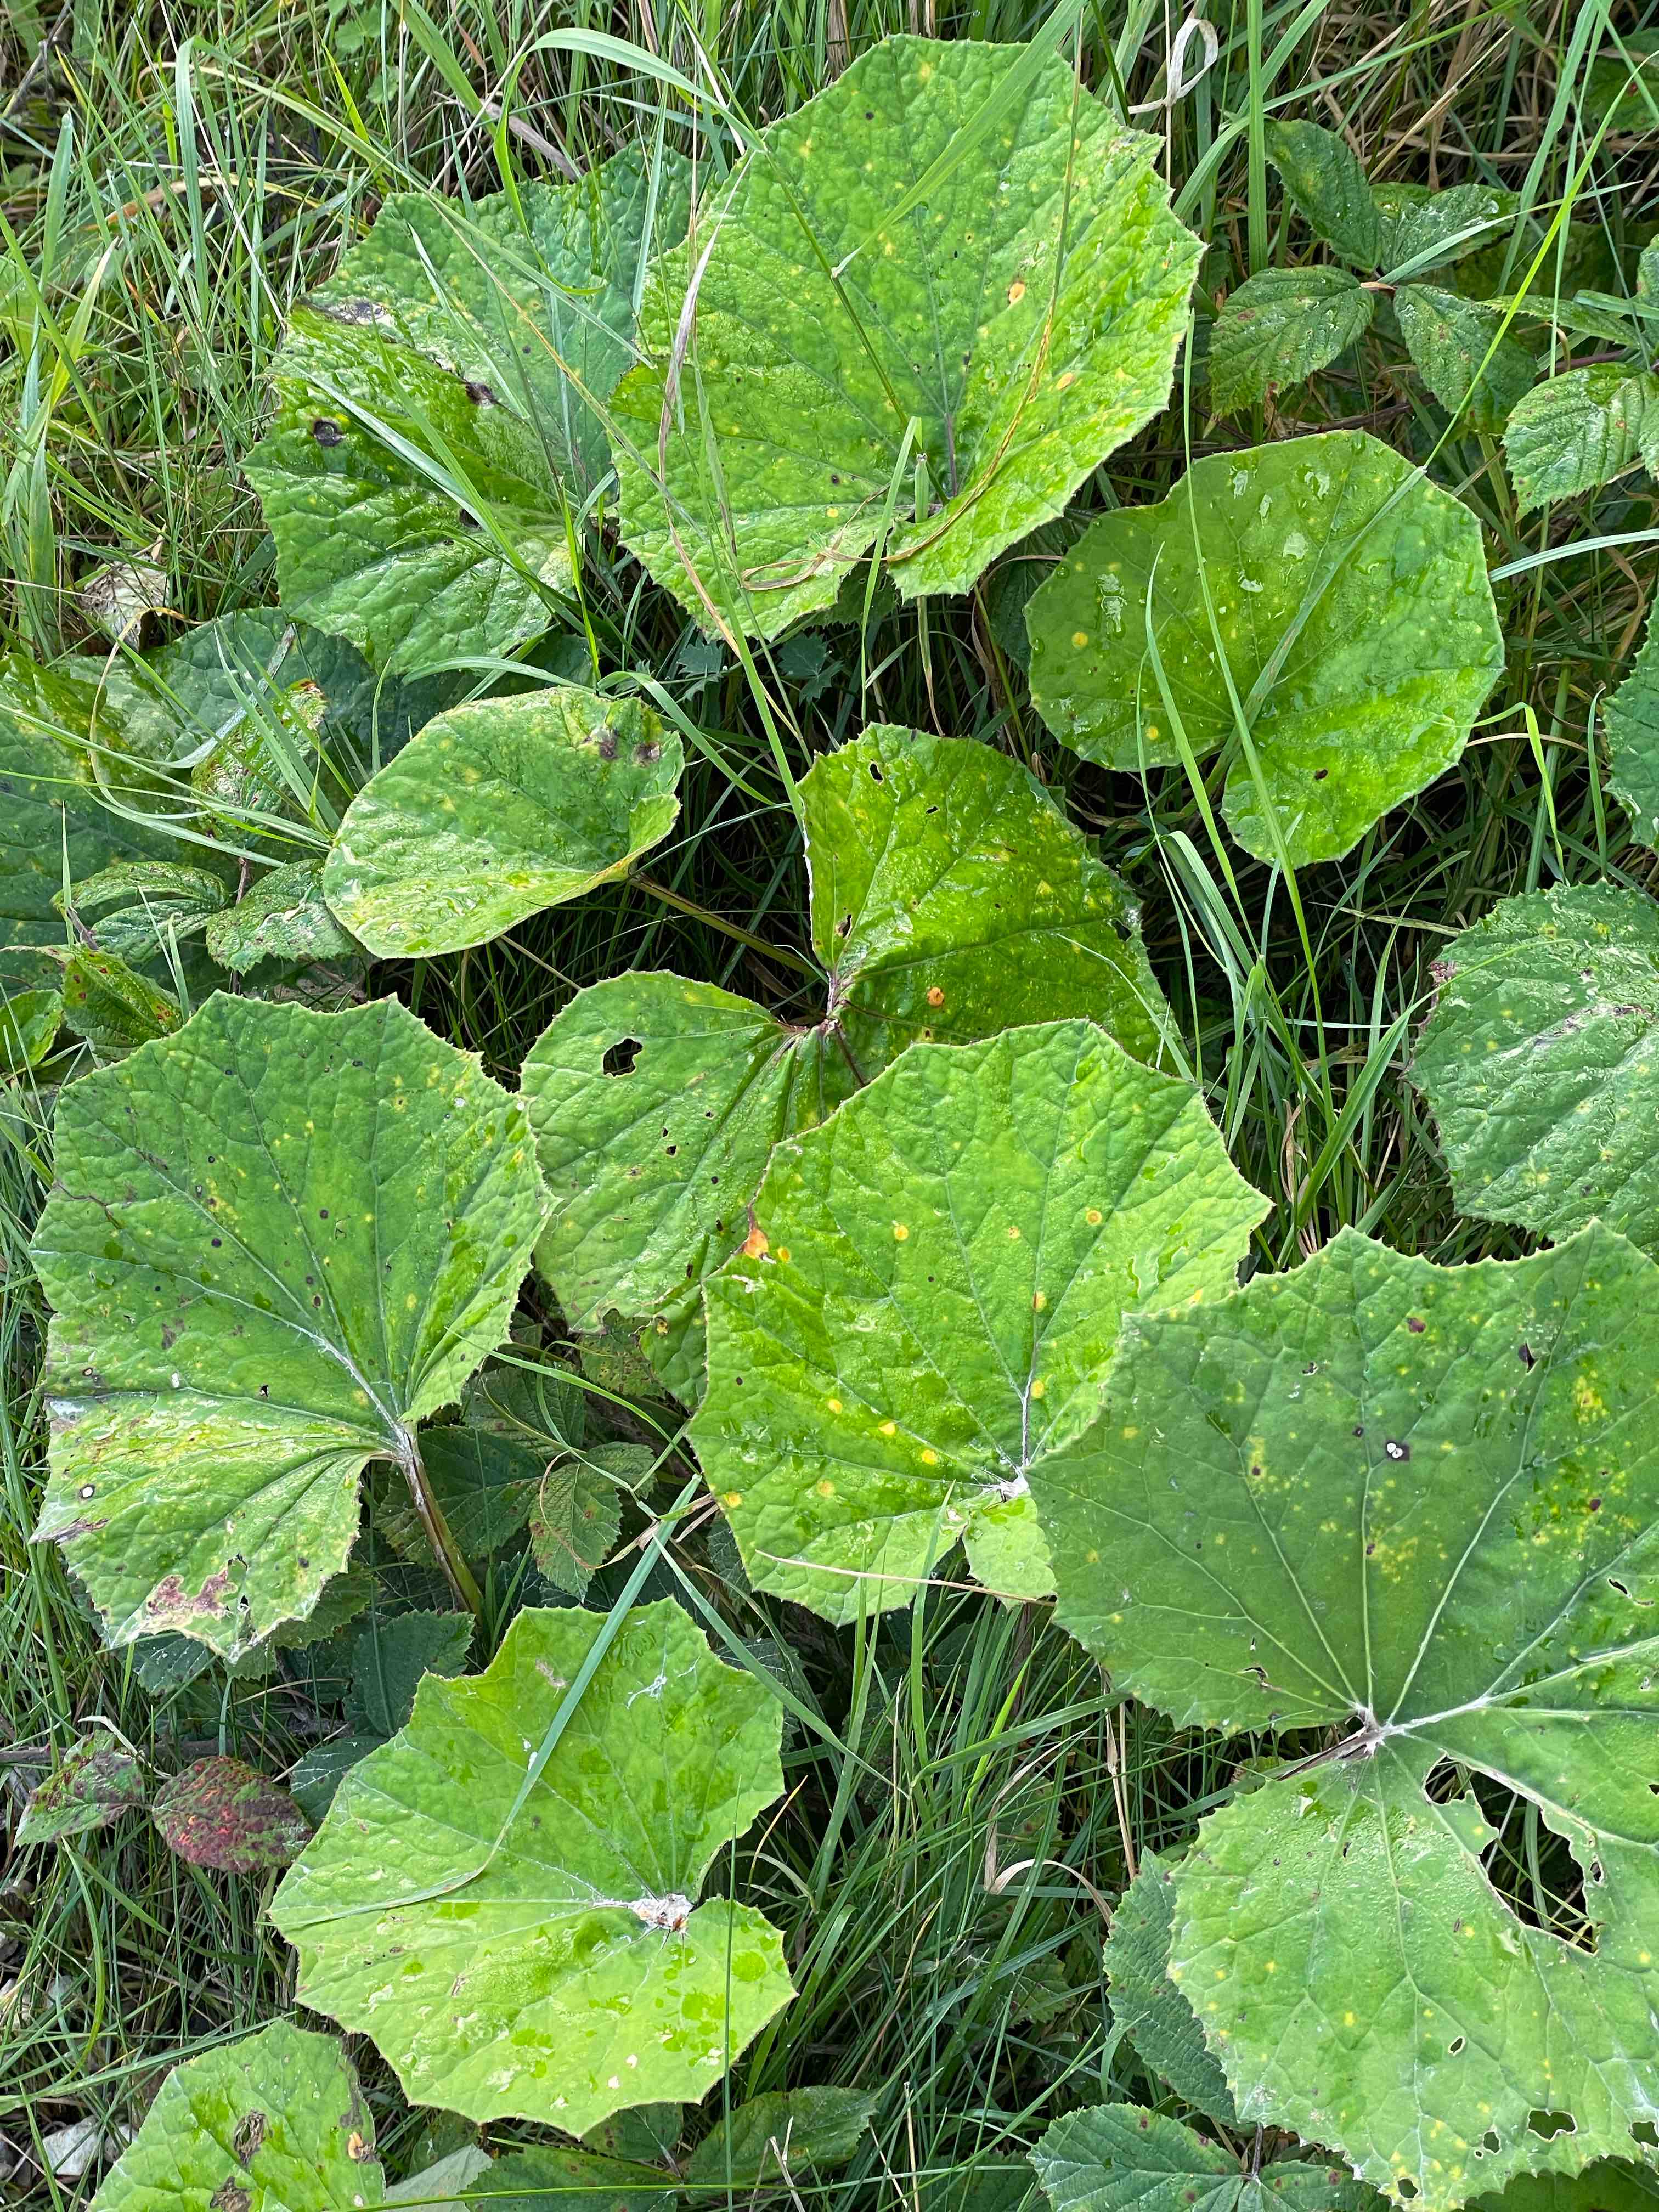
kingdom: Fungi
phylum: Basidiomycota
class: Pucciniomycetes
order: Pucciniales
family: Pucciniaceae
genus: Puccinia
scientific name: Puccinia poarum
